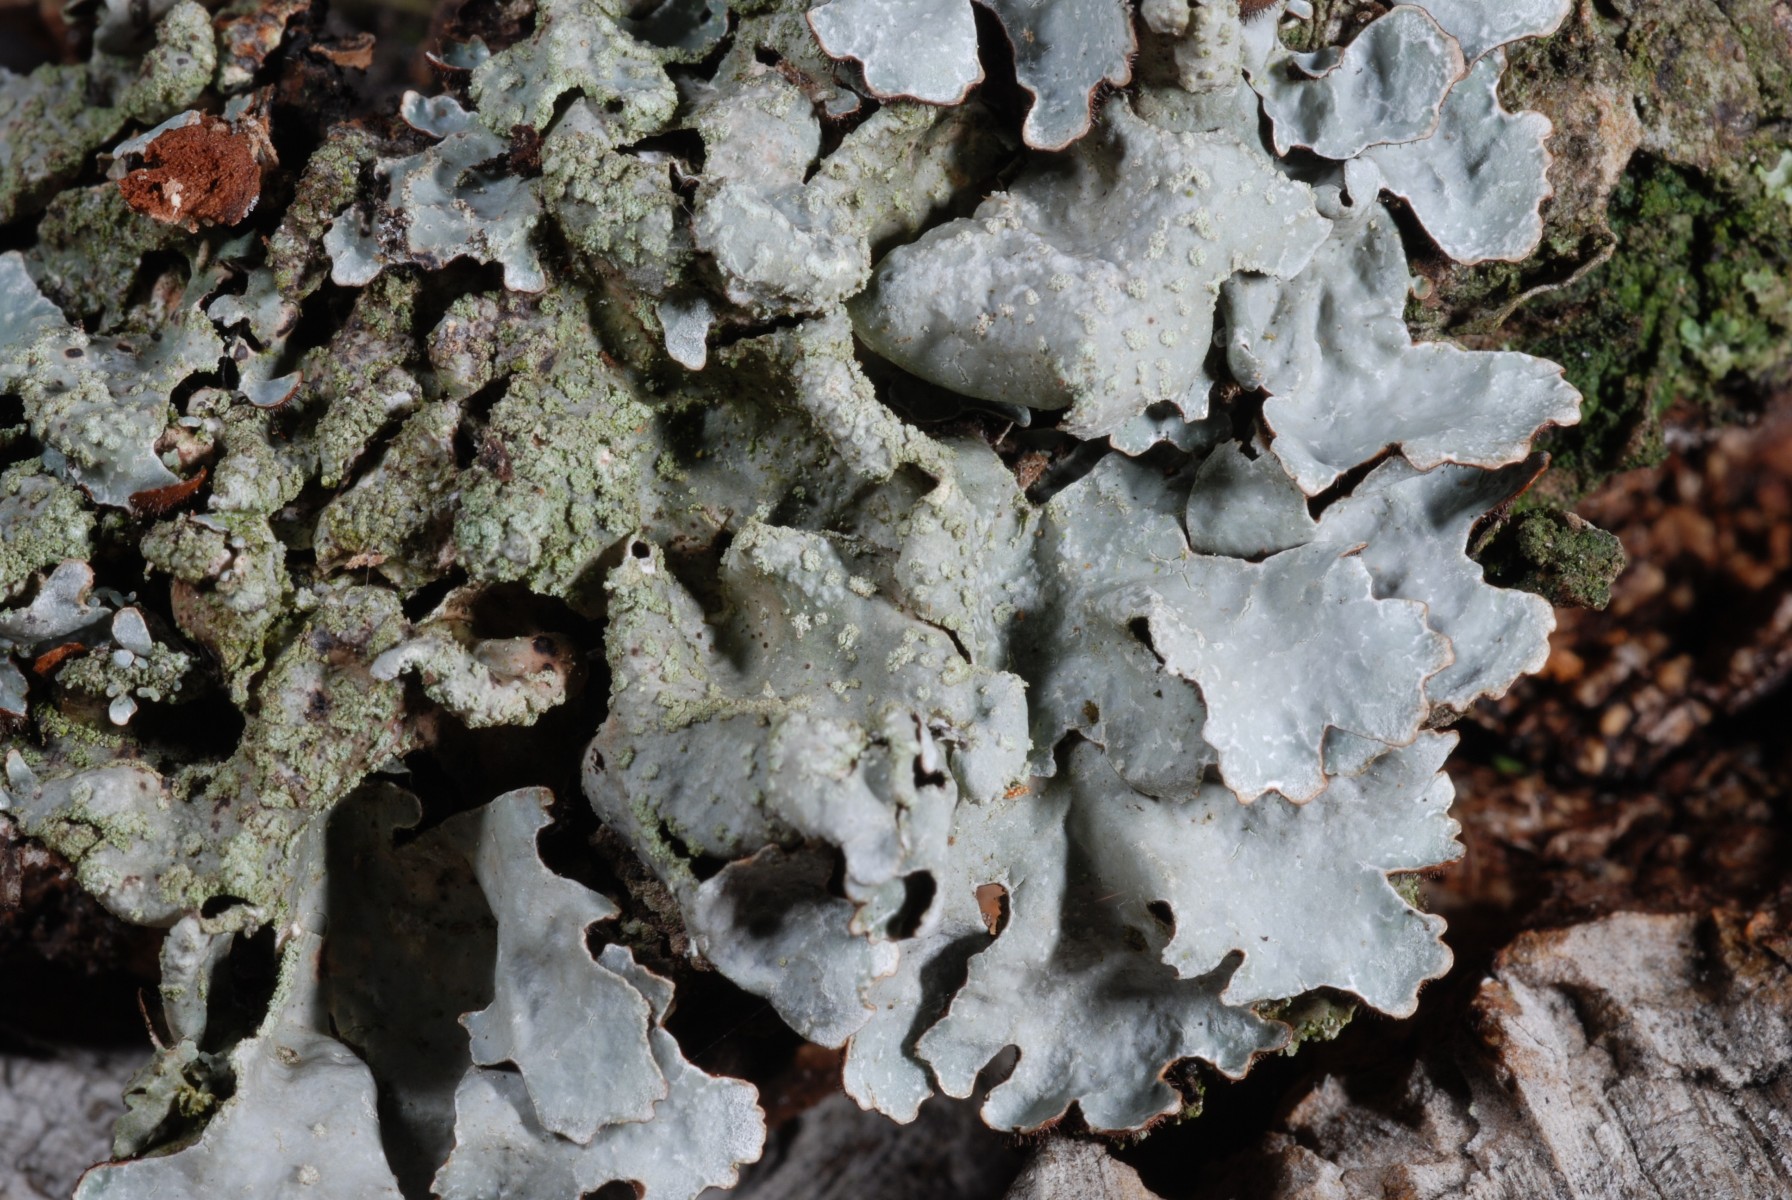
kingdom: Fungi
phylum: Ascomycota
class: Lecanoromycetes
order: Lecanorales
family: Parmeliaceae
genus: Parmelia
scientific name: Parmelia sulcata
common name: rynket skållav
